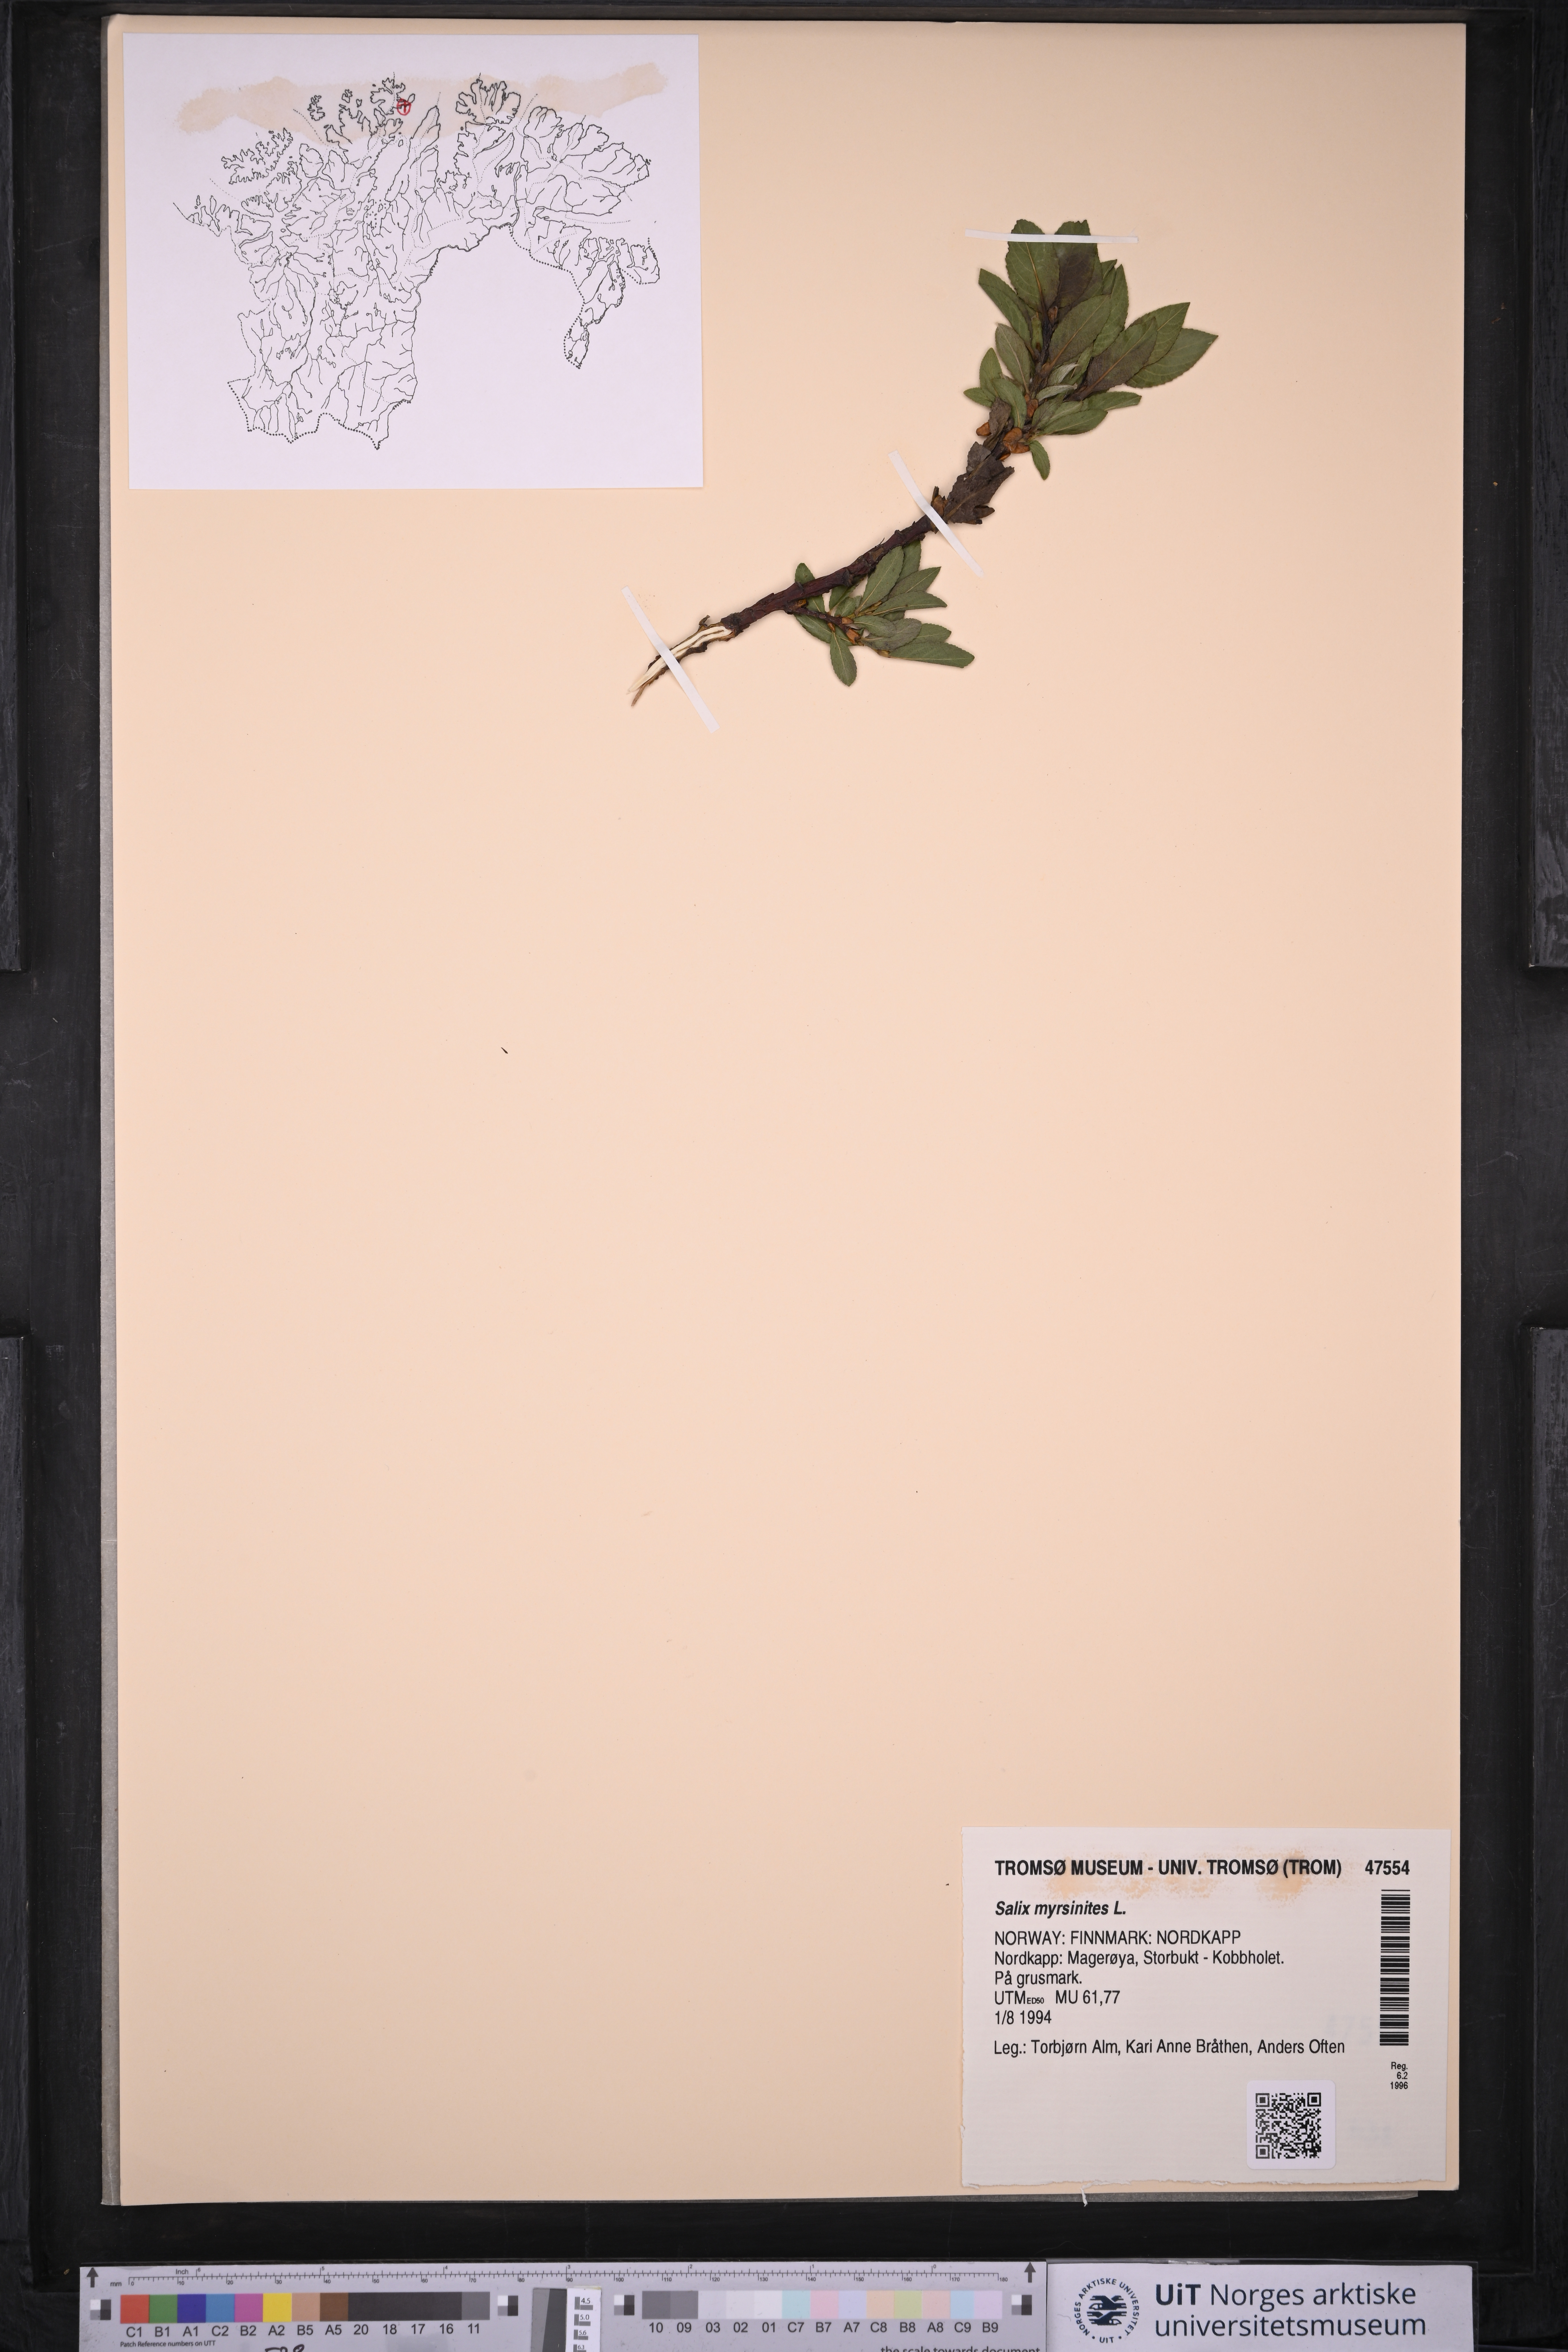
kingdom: Plantae
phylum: Tracheophyta
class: Magnoliopsida
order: Malpighiales
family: Salicaceae
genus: Salix
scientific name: Salix myrsinites
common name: Myrtle willow
